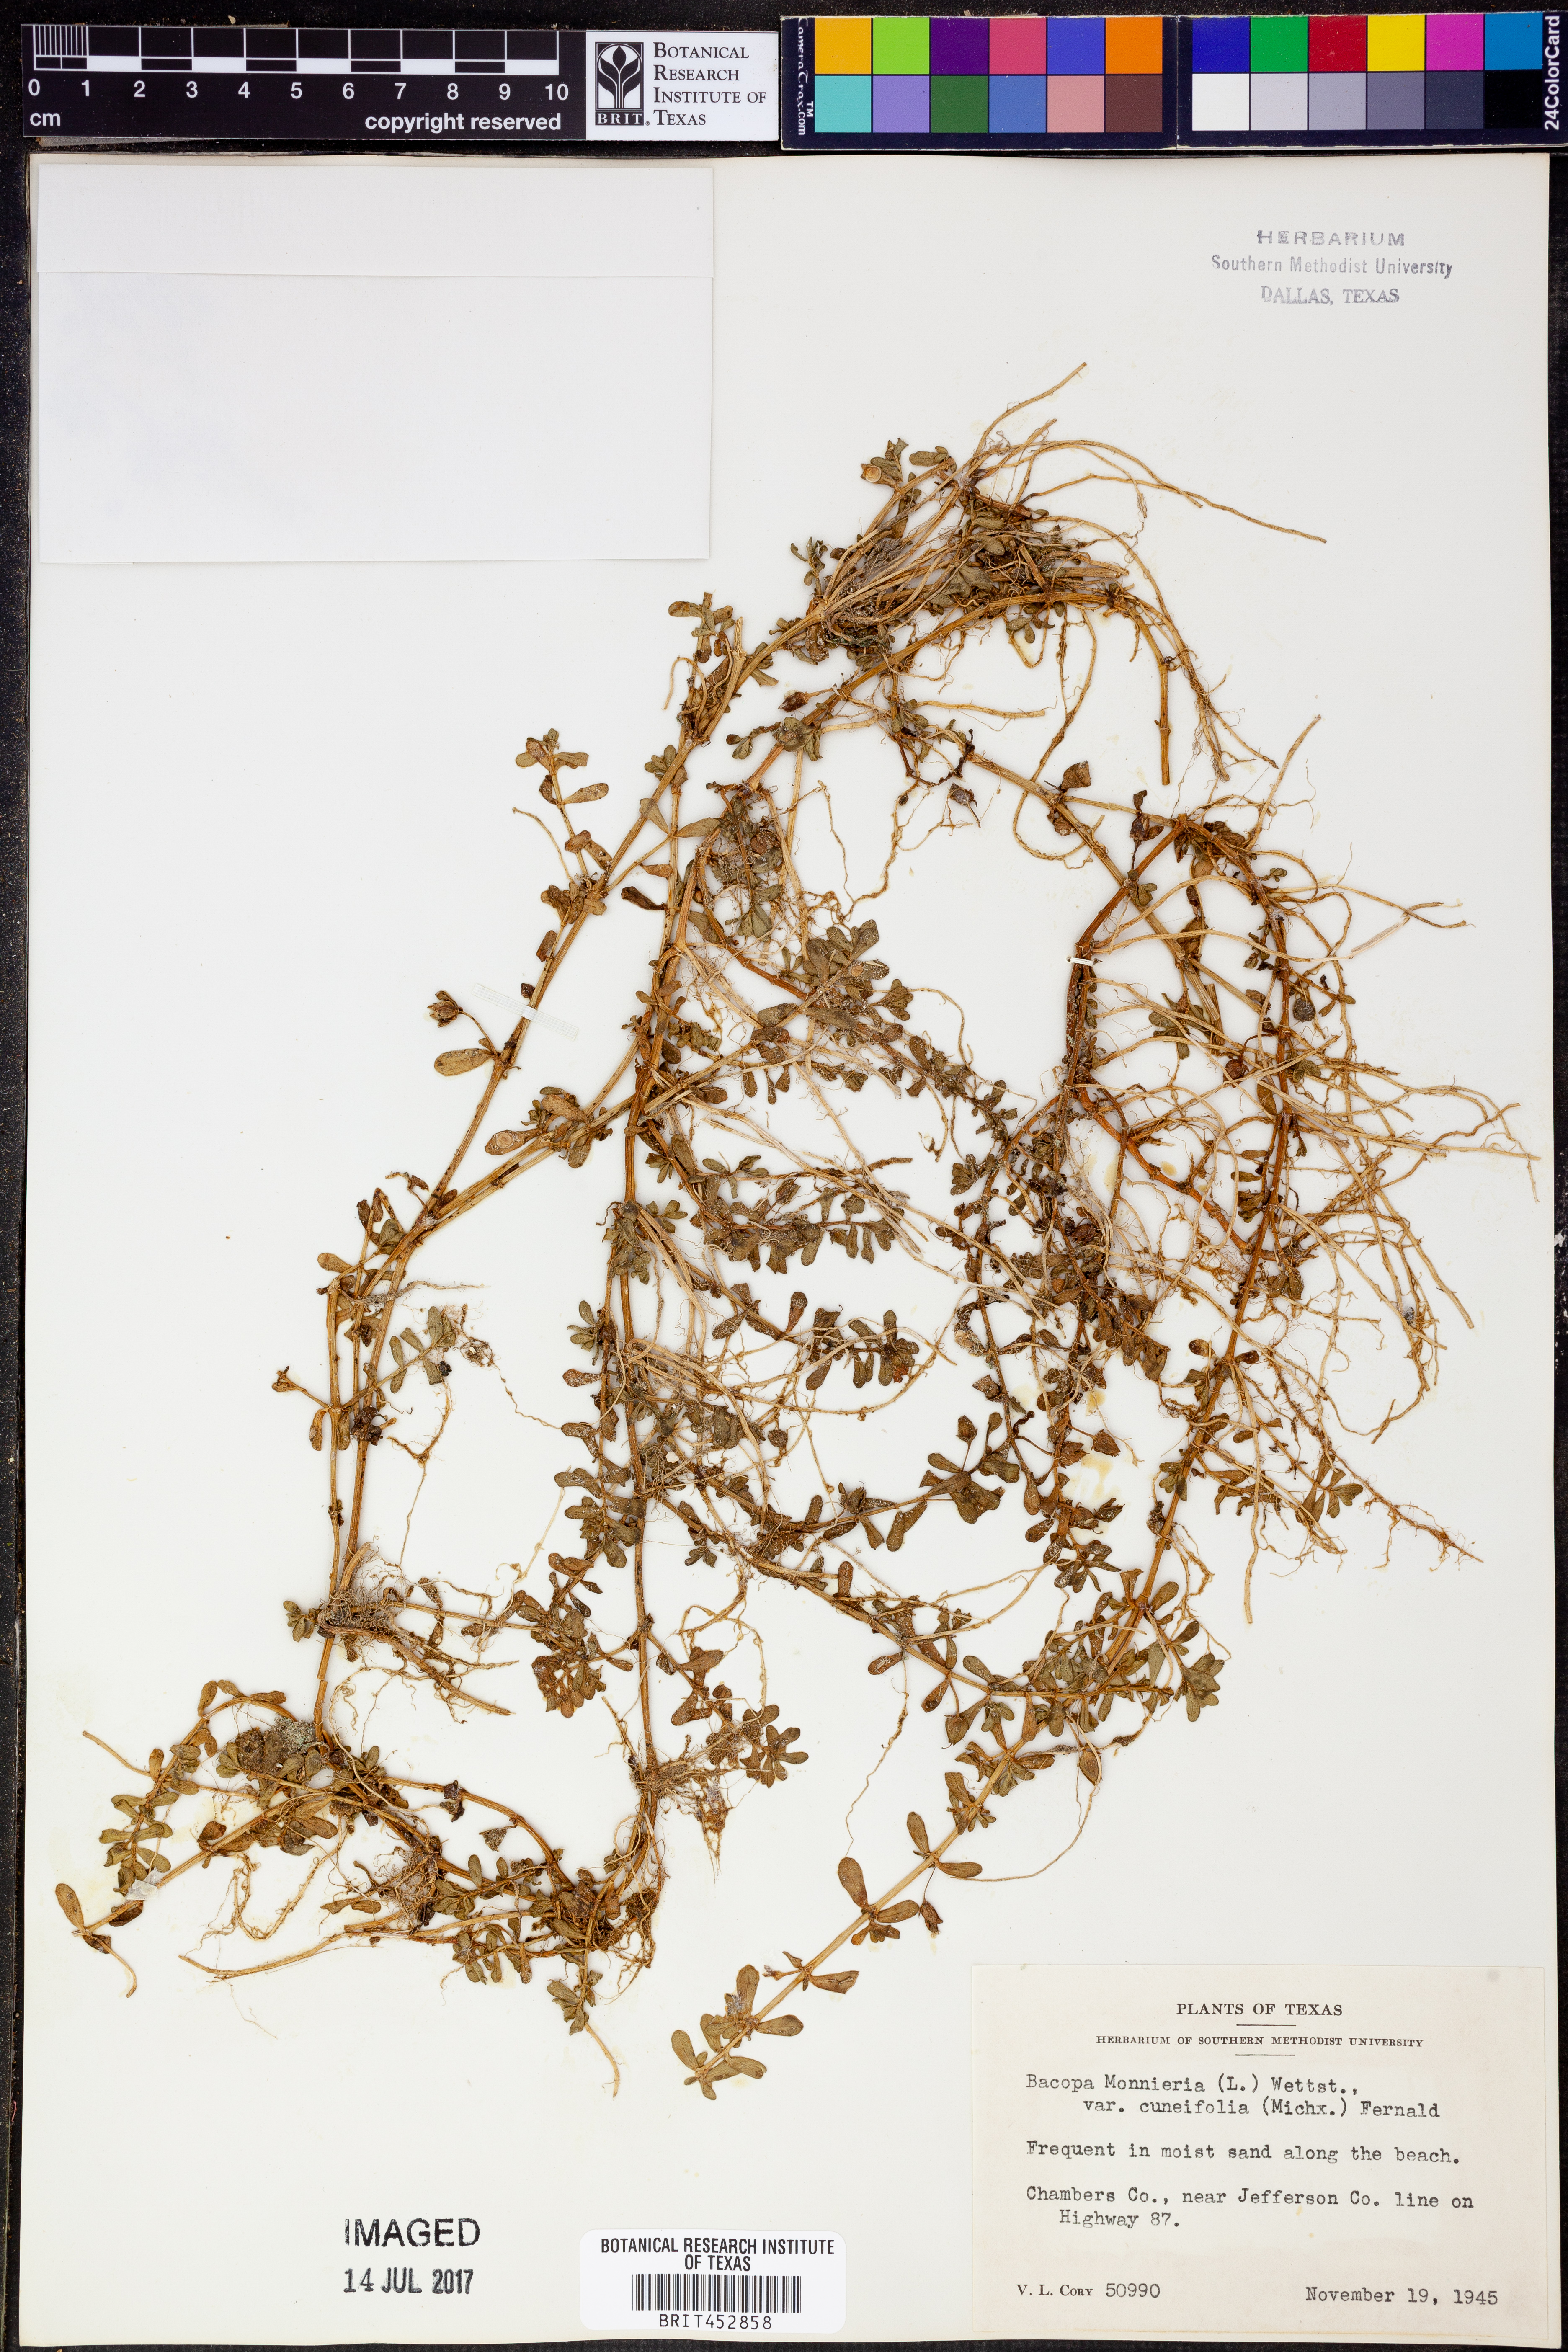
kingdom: Plantae
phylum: Tracheophyta
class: Magnoliopsida
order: Lamiales
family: Plantaginaceae
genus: Bacopa
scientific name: Bacopa monnieri
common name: Indian-pennywort
